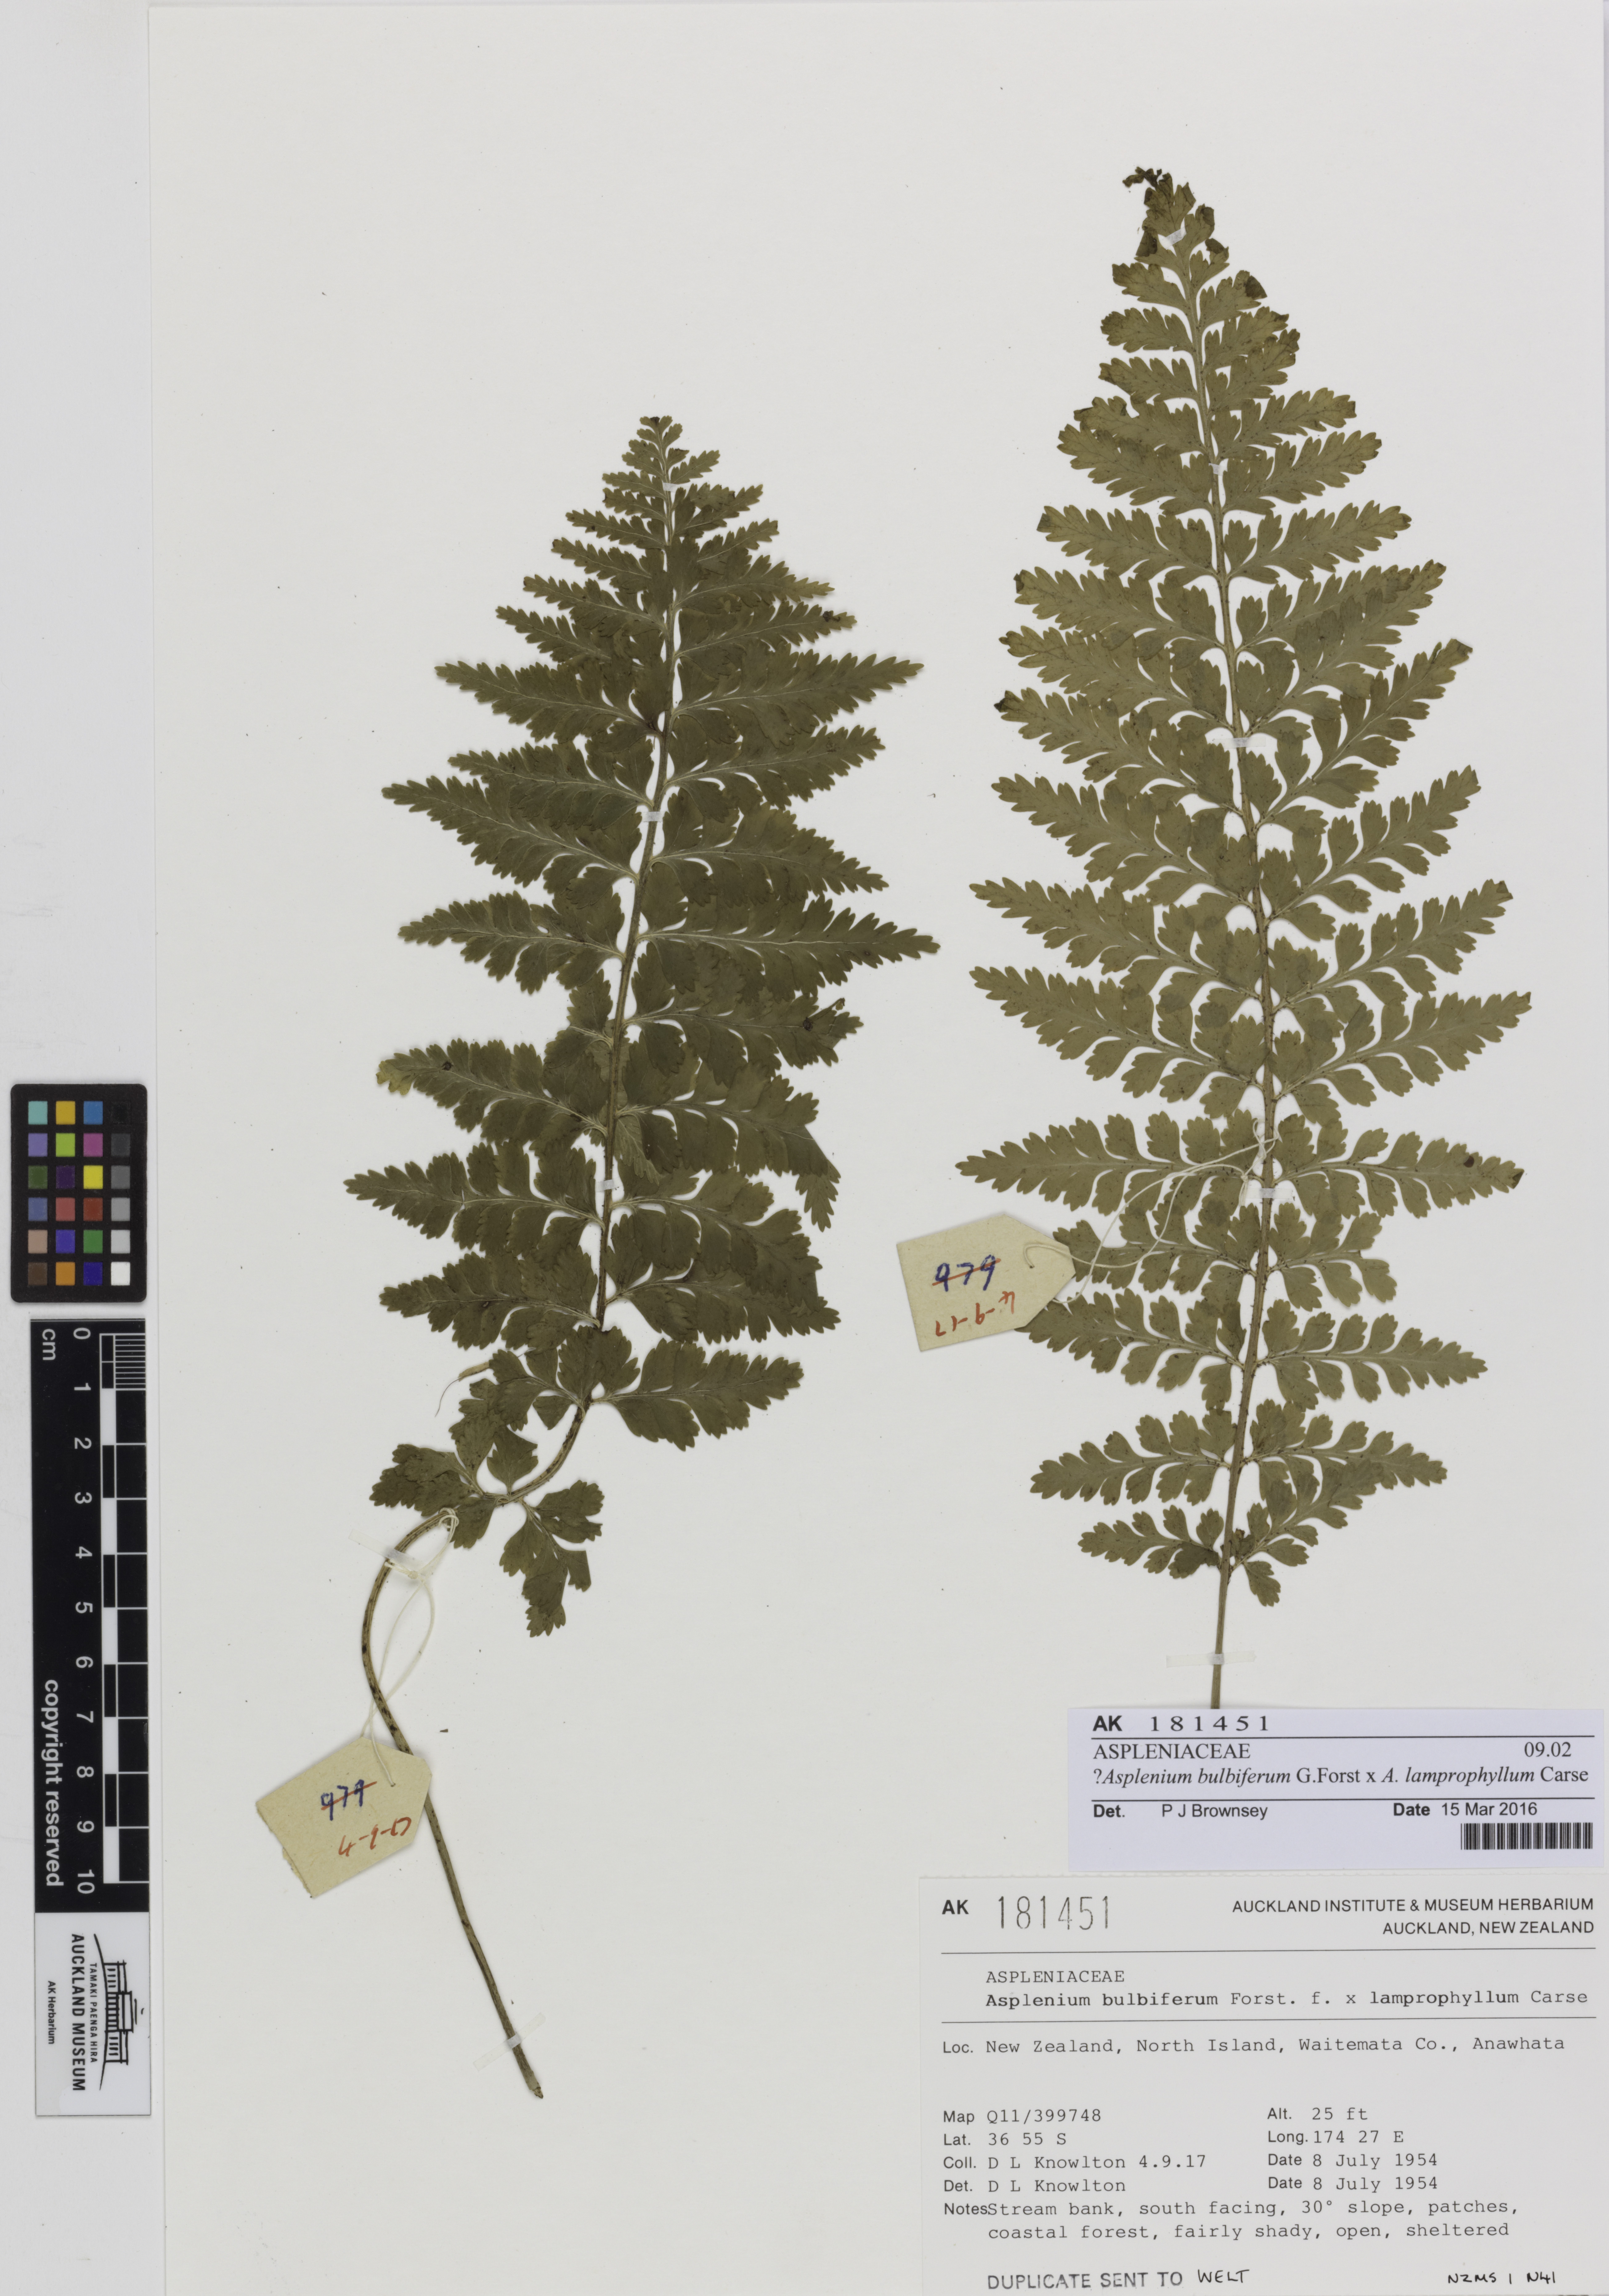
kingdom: Plantae
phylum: Tracheophyta
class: Polypodiopsida
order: Polypodiales
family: Aspleniaceae
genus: Asplenium
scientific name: Asplenium
